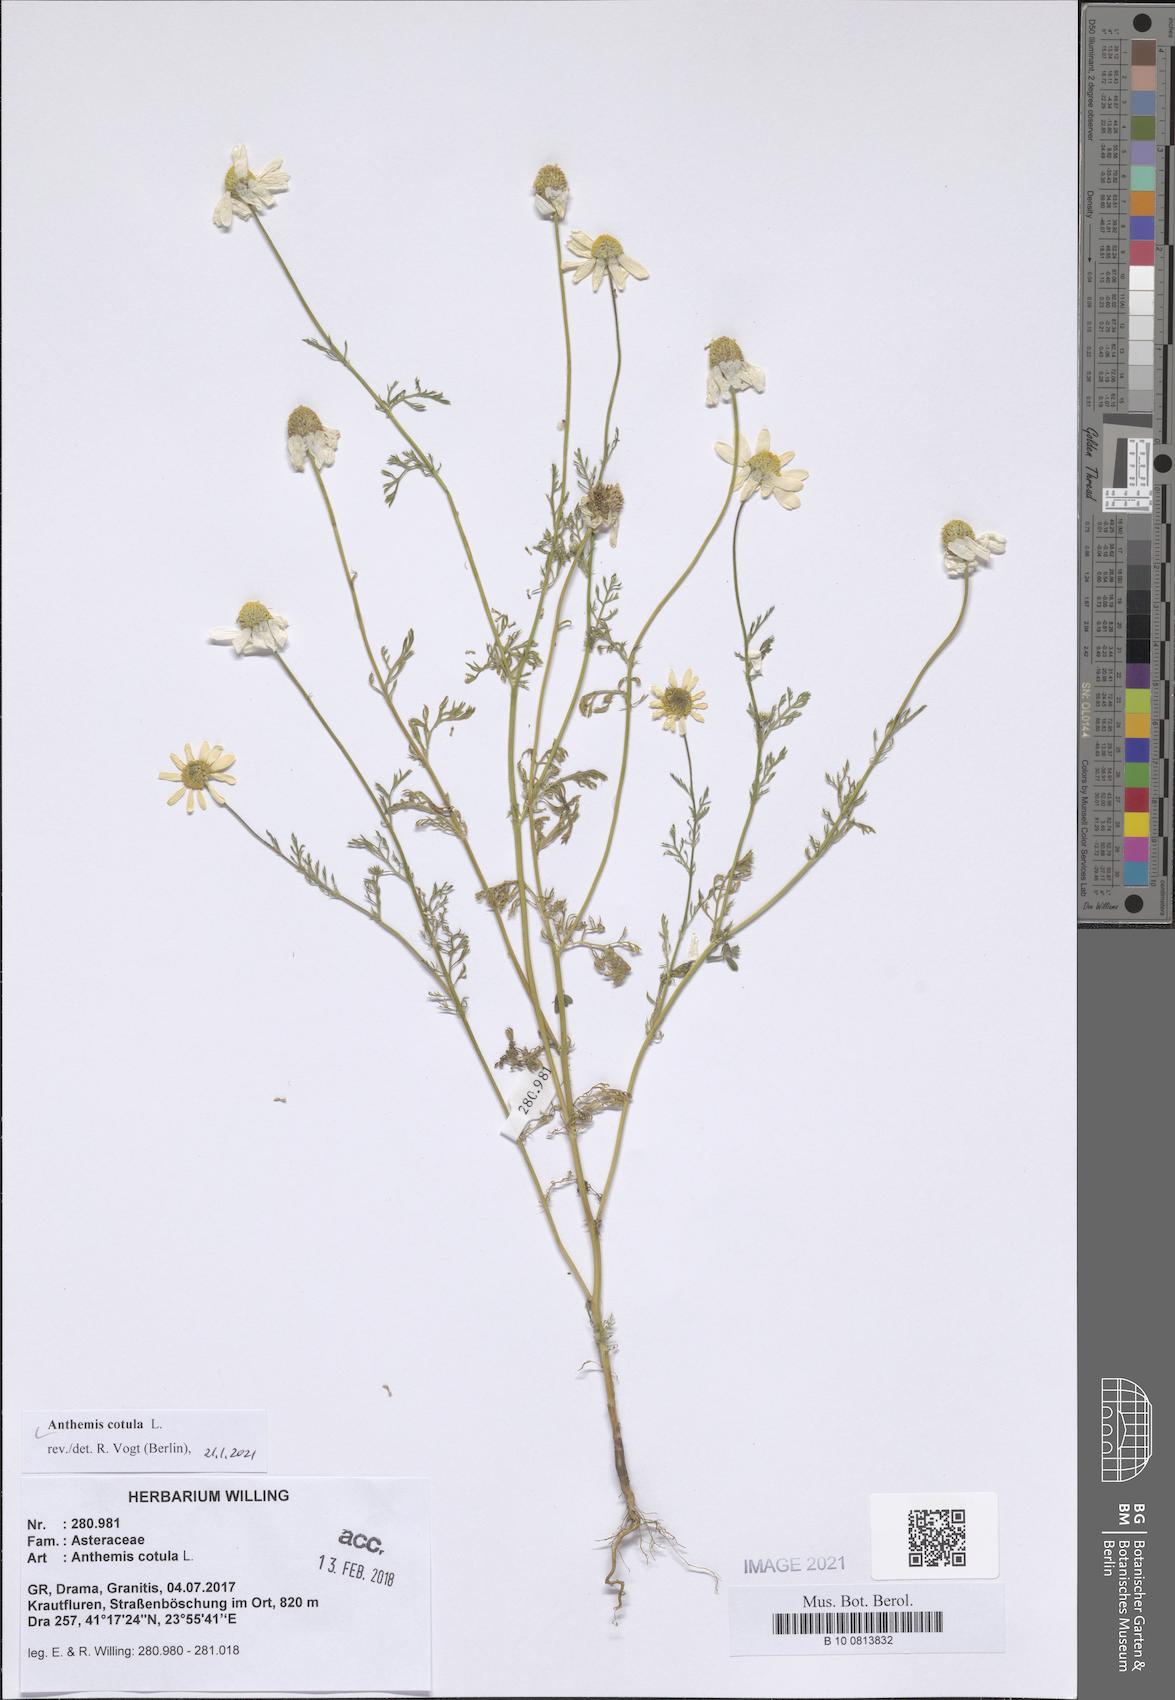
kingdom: Plantae
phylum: Tracheophyta
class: Magnoliopsida
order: Asterales
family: Asteraceae
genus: Anthemis
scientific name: Anthemis cotula
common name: Stinking chamomile
